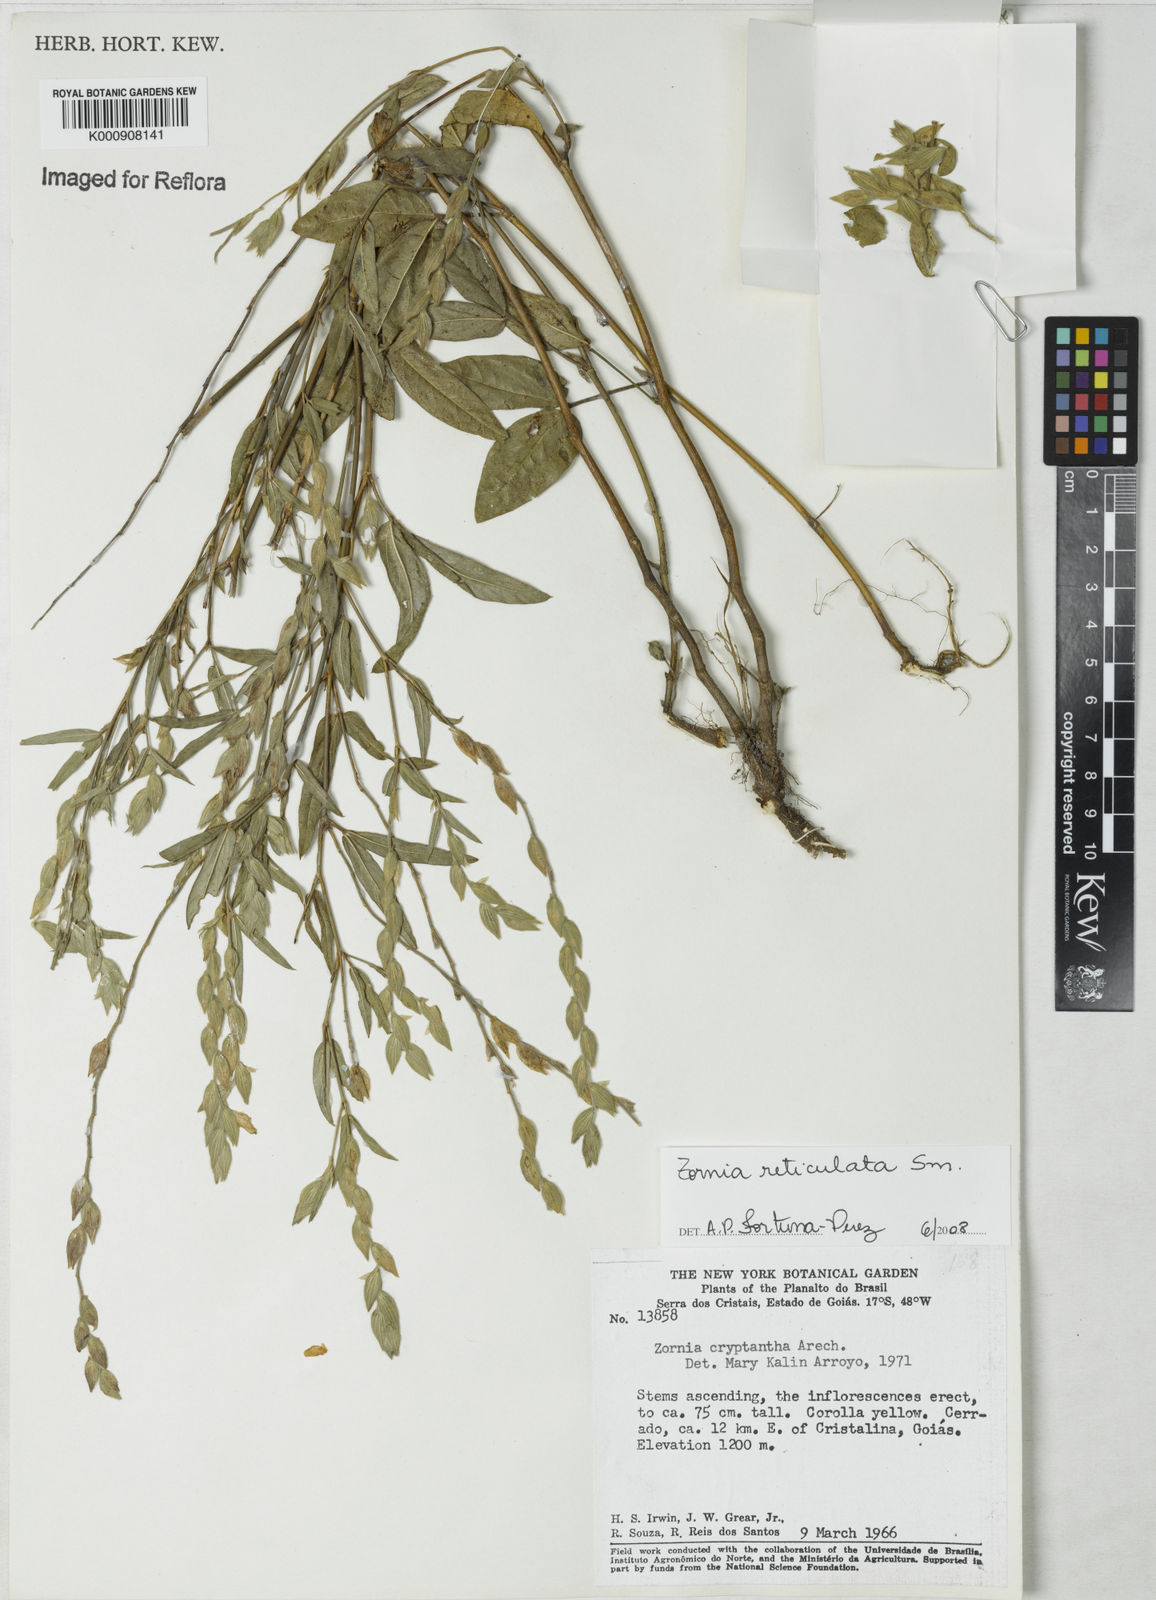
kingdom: Plantae
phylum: Tracheophyta
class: Magnoliopsida
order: Fabales
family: Fabaceae
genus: Zornia
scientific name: Zornia reticulata
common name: Reticulate viperina
